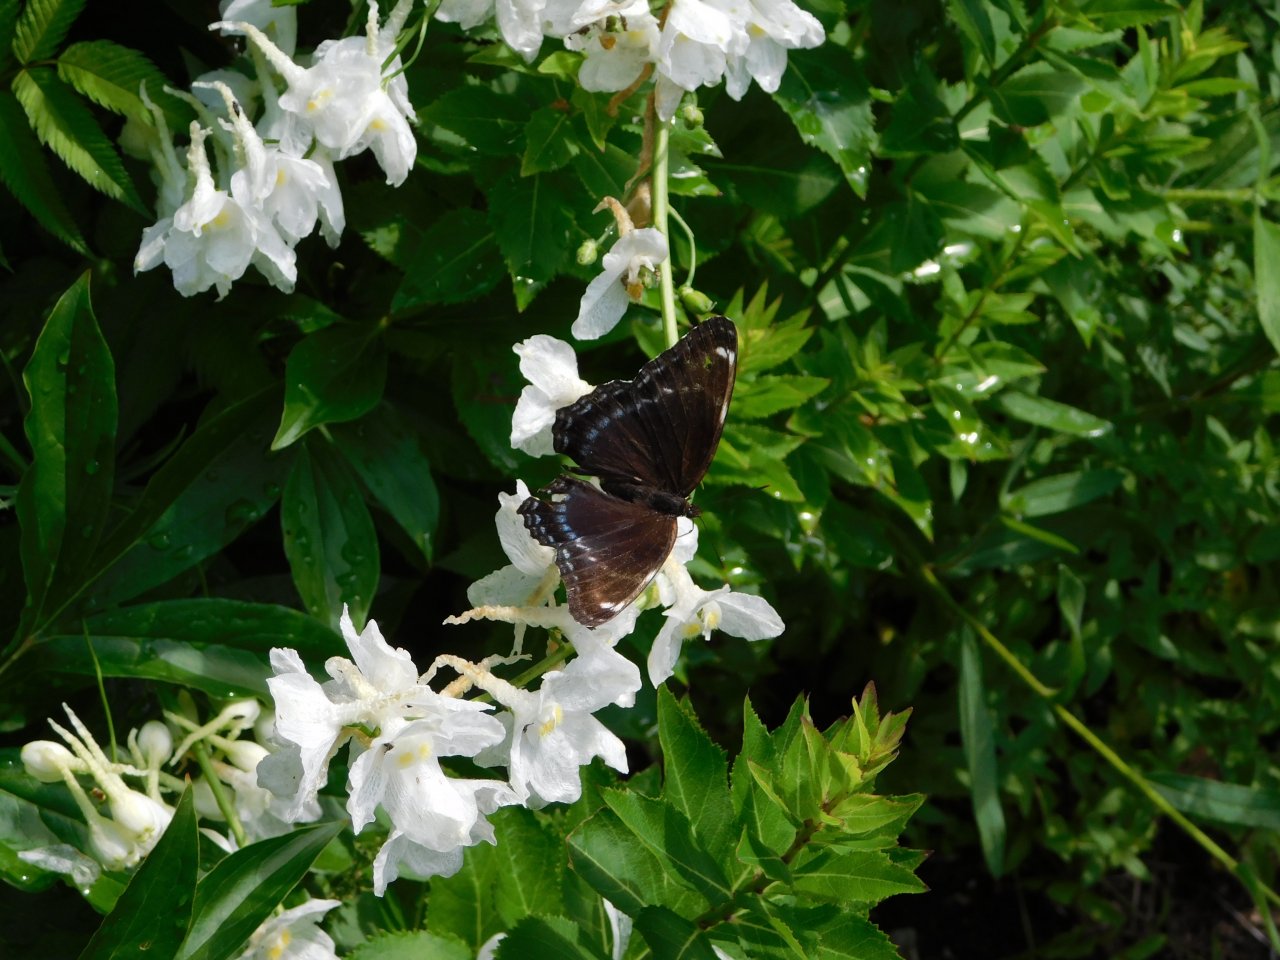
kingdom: Animalia
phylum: Arthropoda
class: Insecta
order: Lepidoptera
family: Nymphalidae
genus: Limenitis
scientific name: Limenitis astyanax
